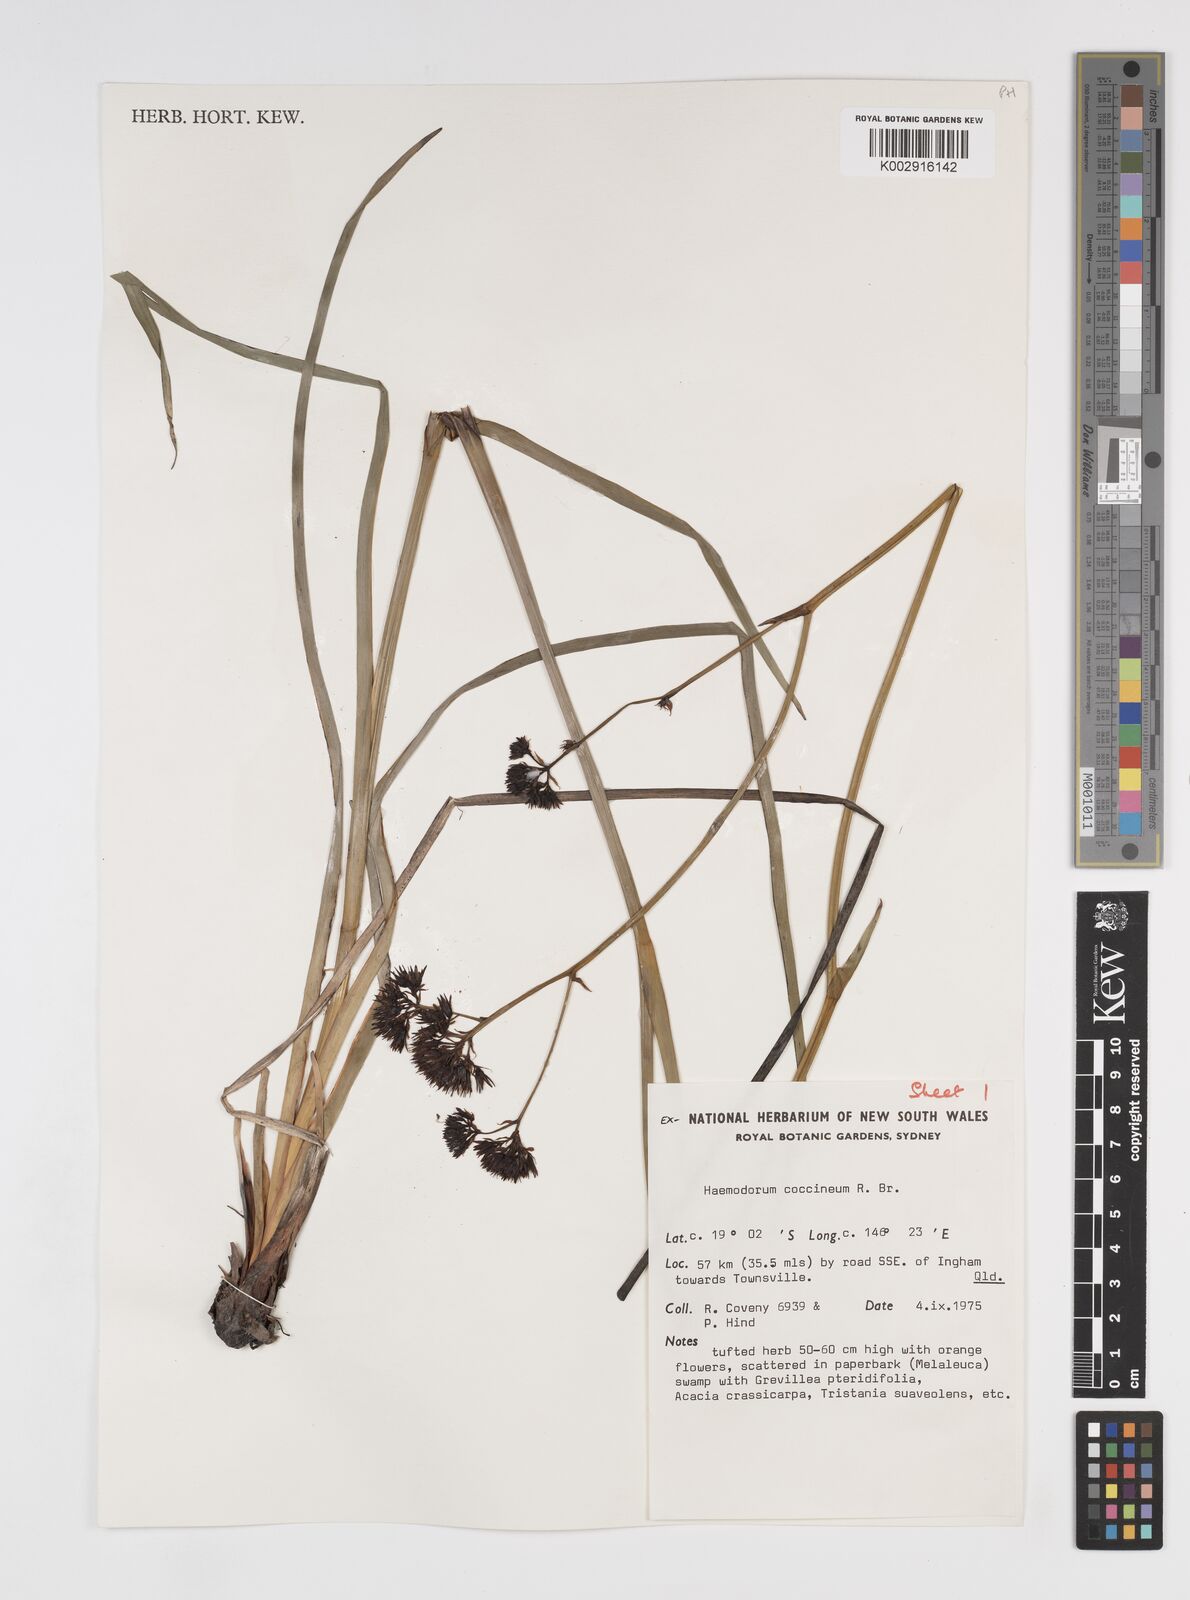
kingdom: Plantae
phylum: Tracheophyta
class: Liliopsida
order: Commelinales
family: Haemodoraceae
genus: Haemodorum
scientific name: Haemodorum coccineum
